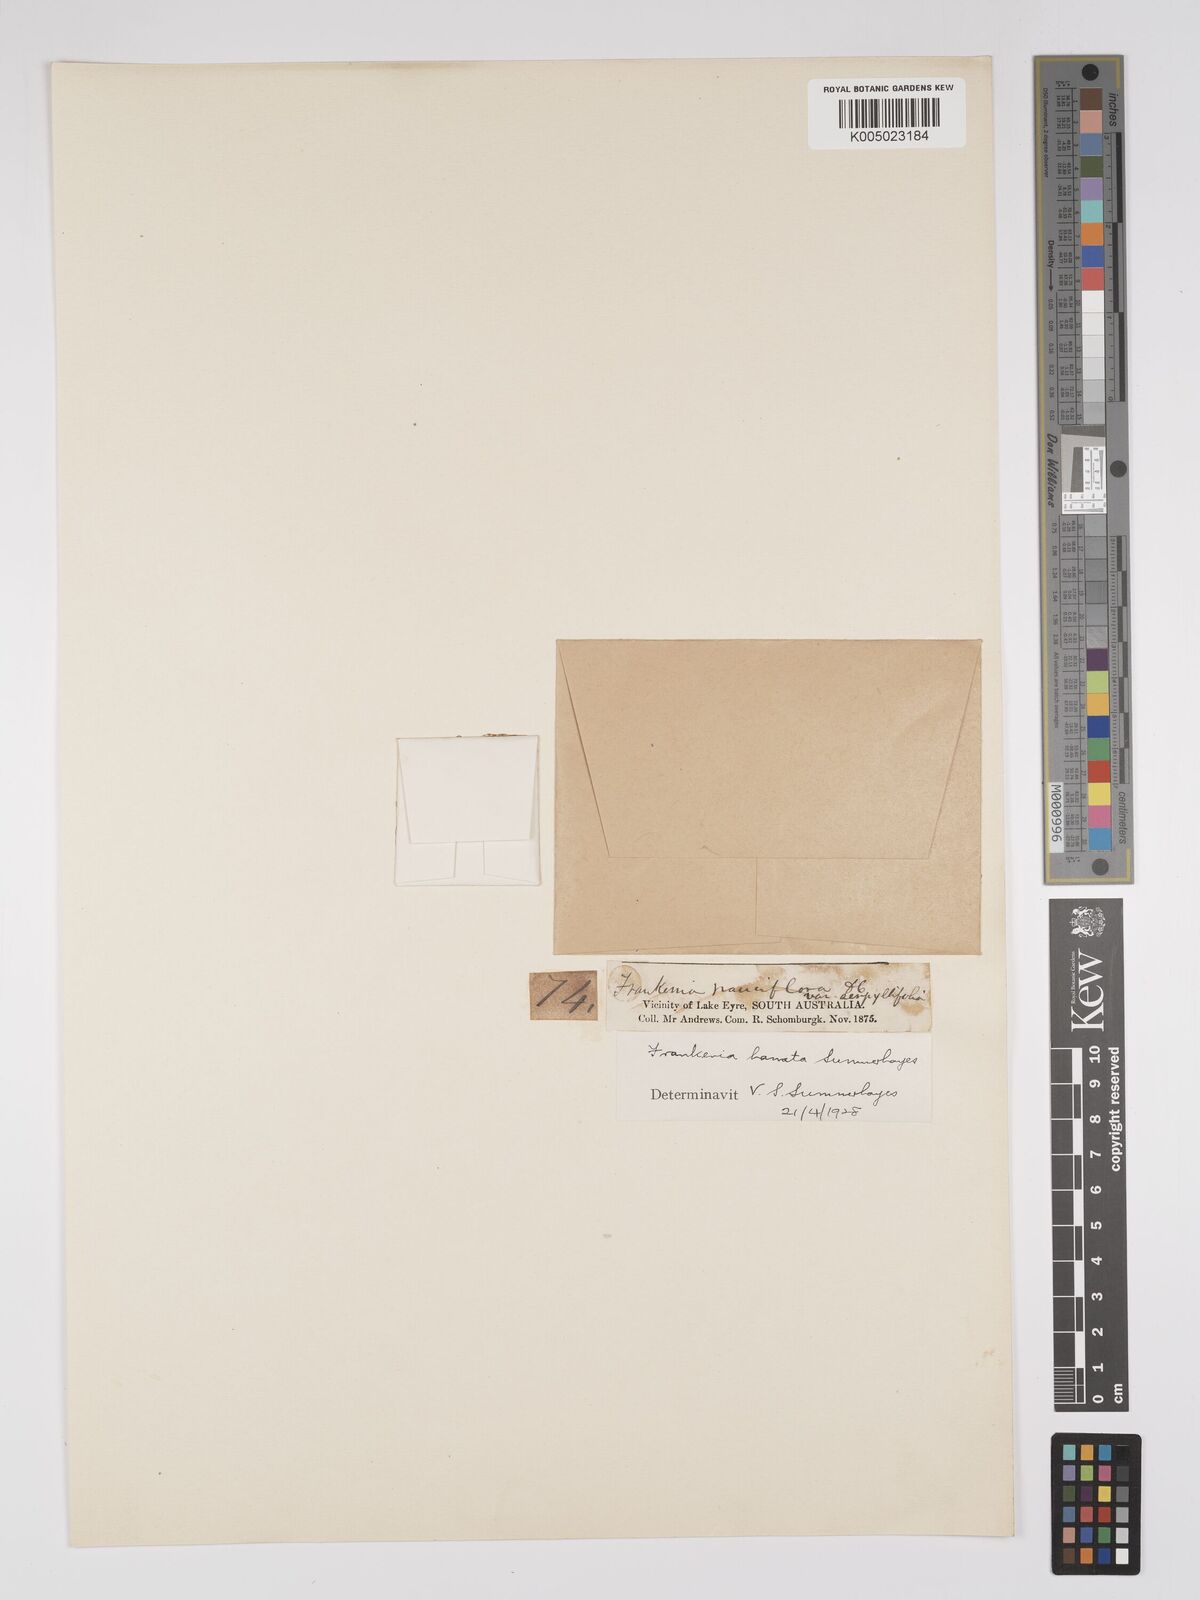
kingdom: Plantae
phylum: Tracheophyta
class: Magnoliopsida
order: Caryophyllales
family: Frankeniaceae
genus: Frankenia
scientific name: Frankenia uncinata
